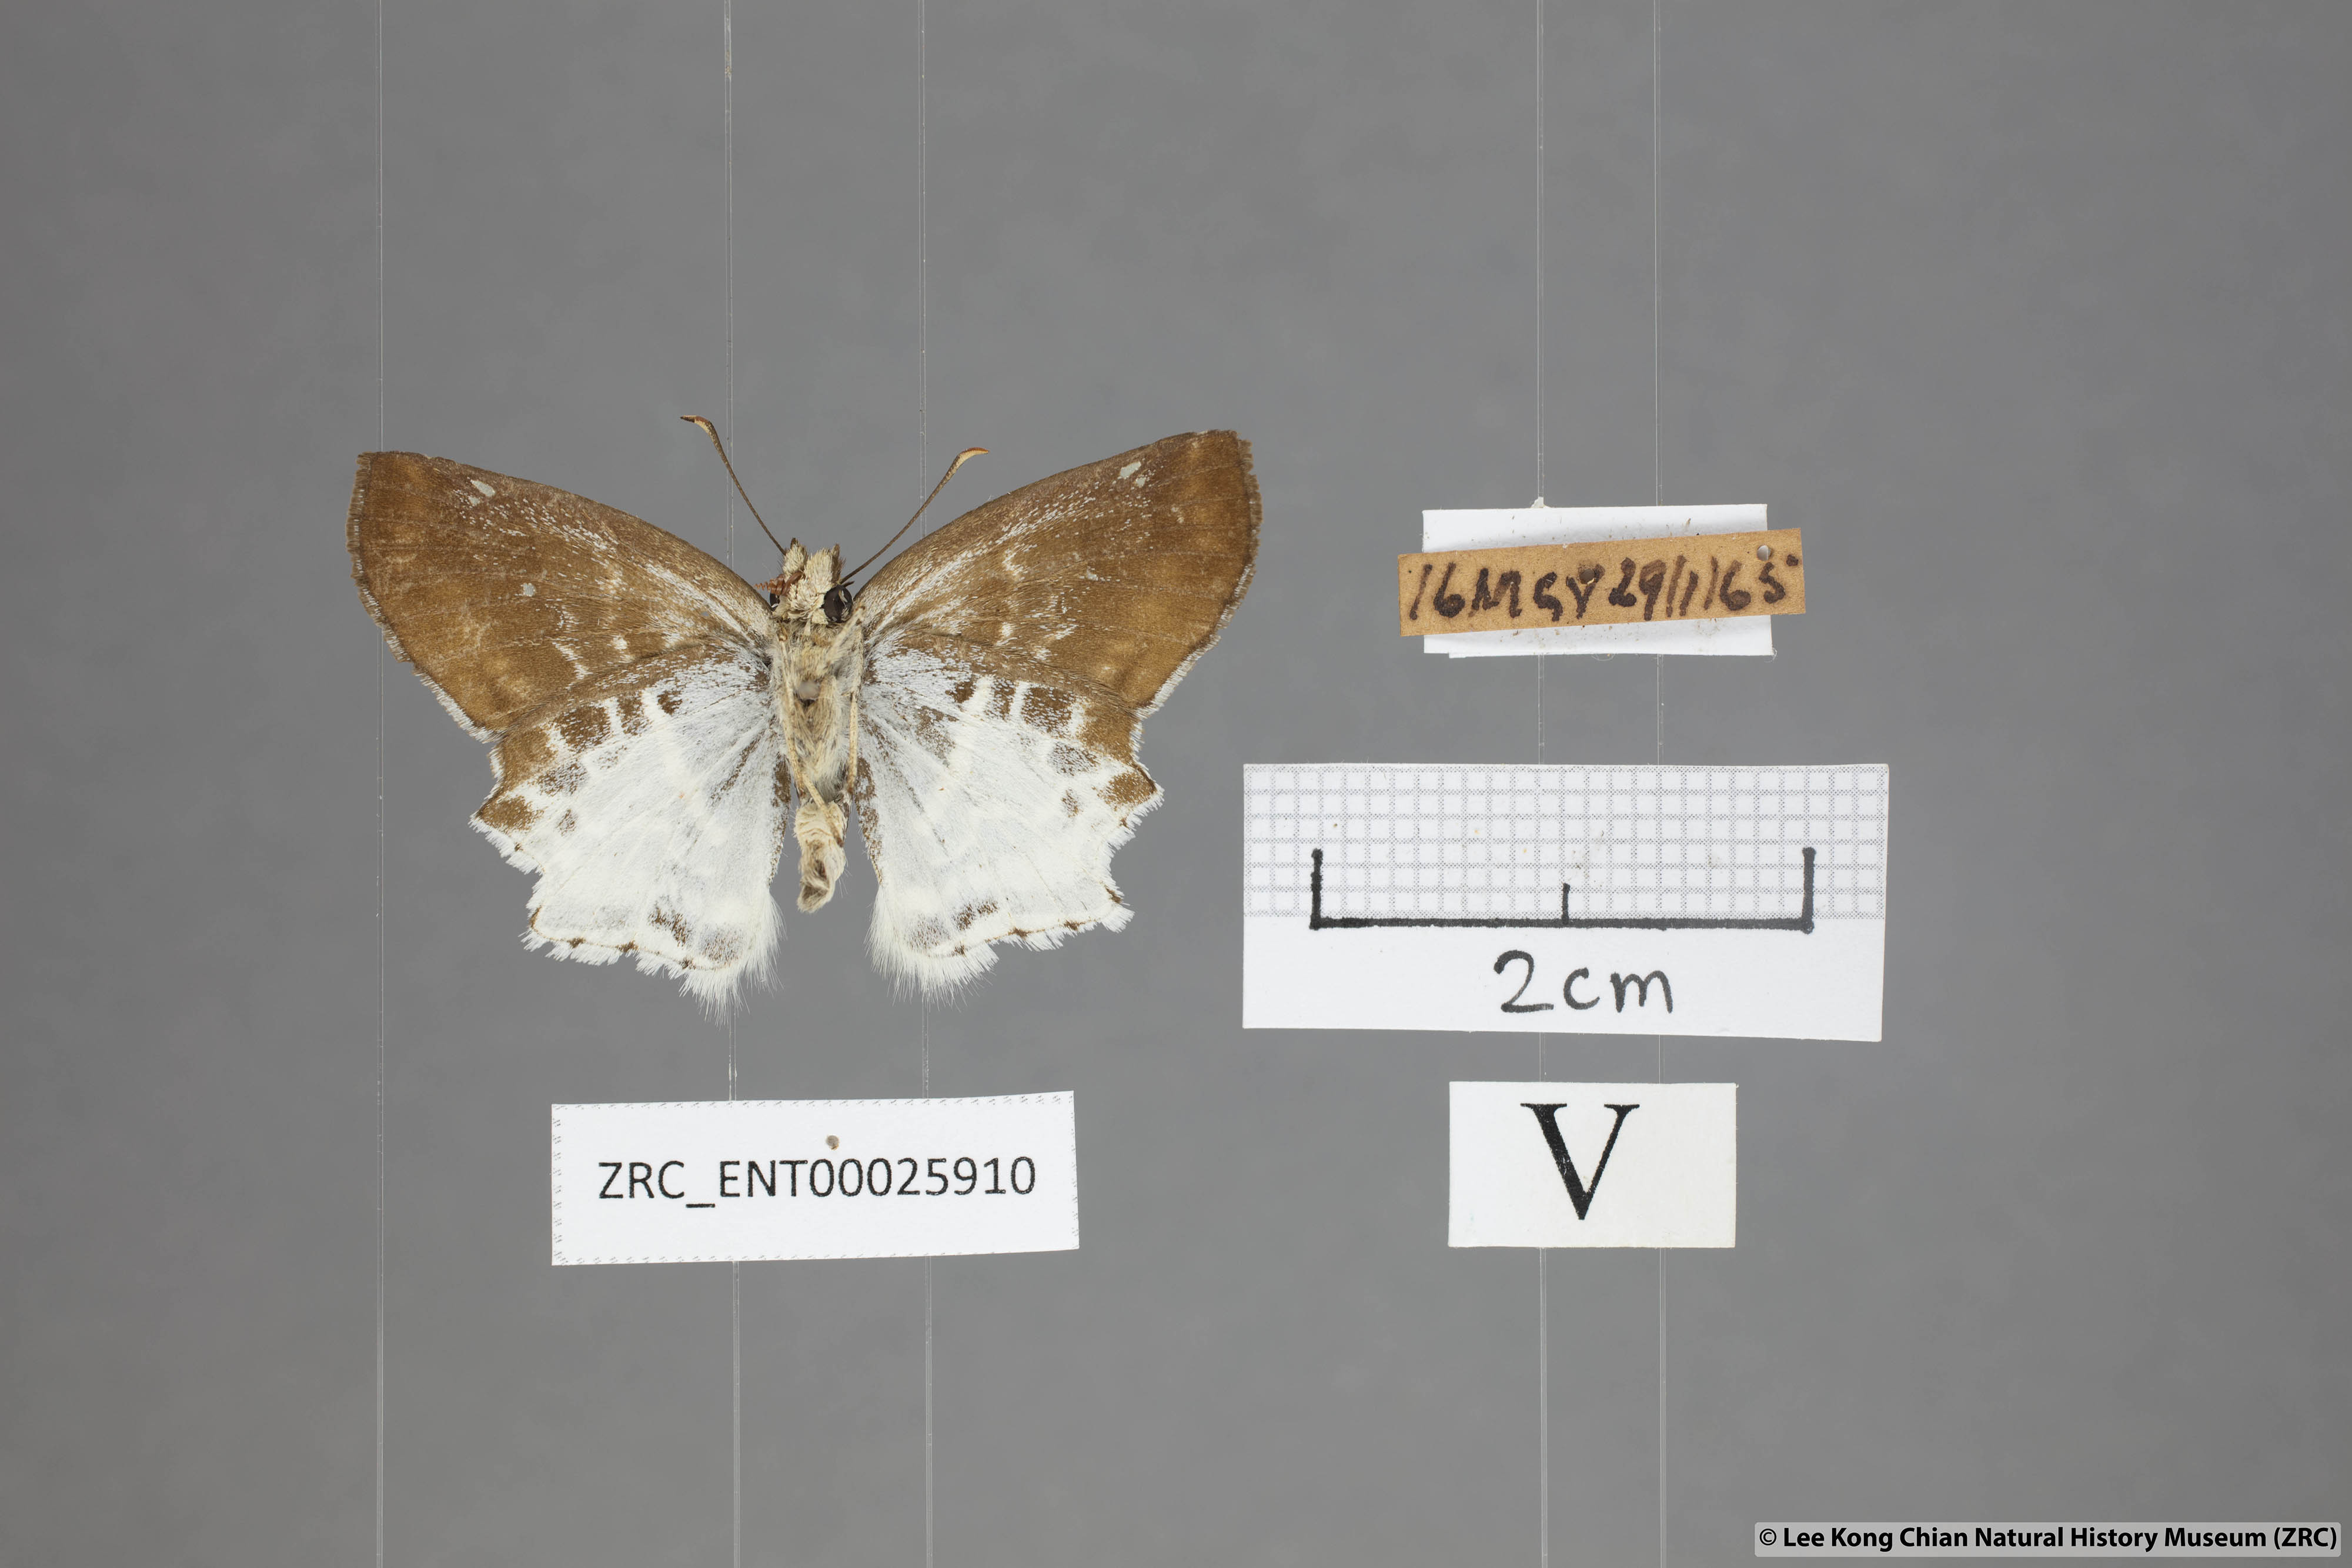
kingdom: Animalia
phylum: Arthropoda
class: Insecta
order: Lepidoptera
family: Hesperiidae
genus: Odontoptilum
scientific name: Odontoptilum pygela
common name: Banded angle
